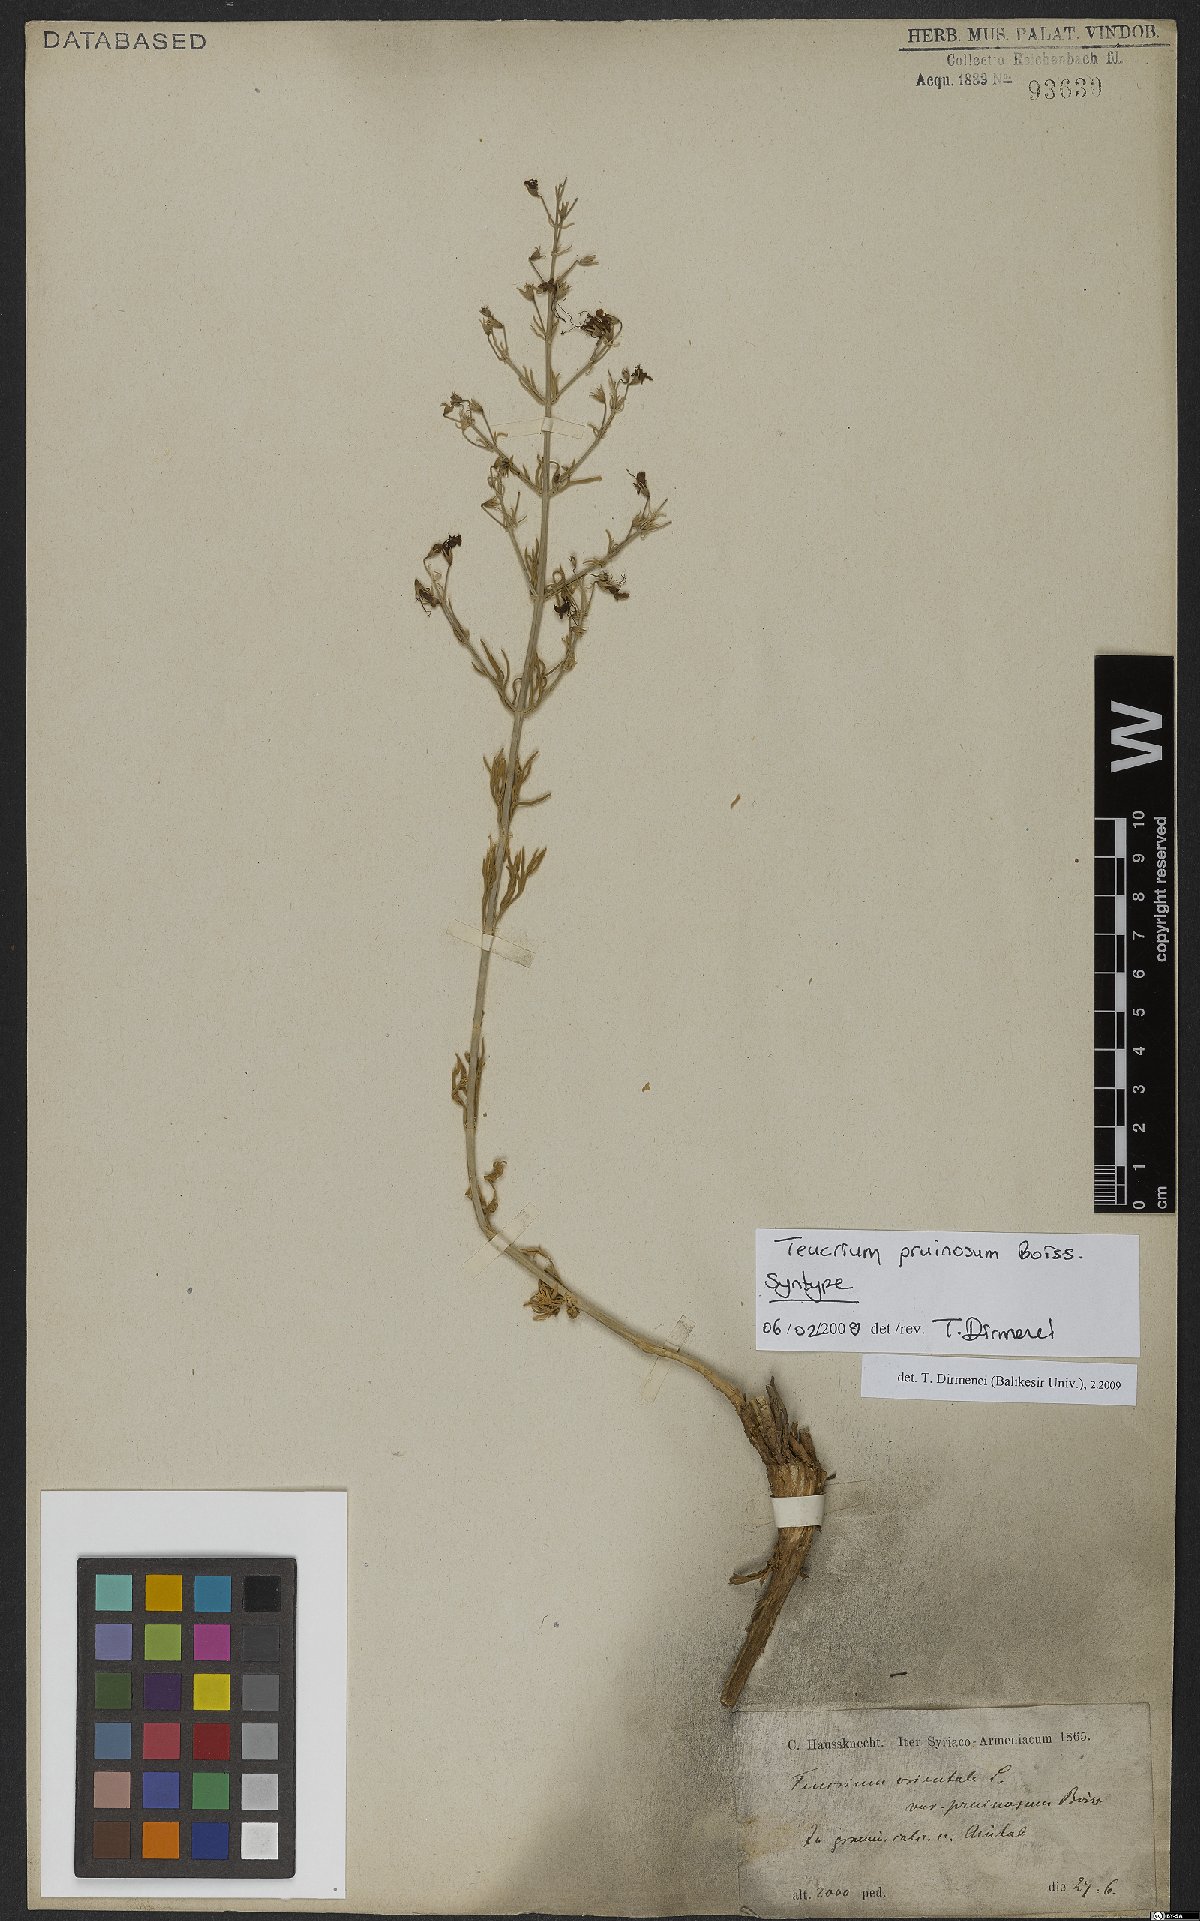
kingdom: Plantae
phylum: Tracheophyta
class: Magnoliopsida
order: Lamiales
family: Lamiaceae
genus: Teucrium
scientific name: Teucrium pruinosum
